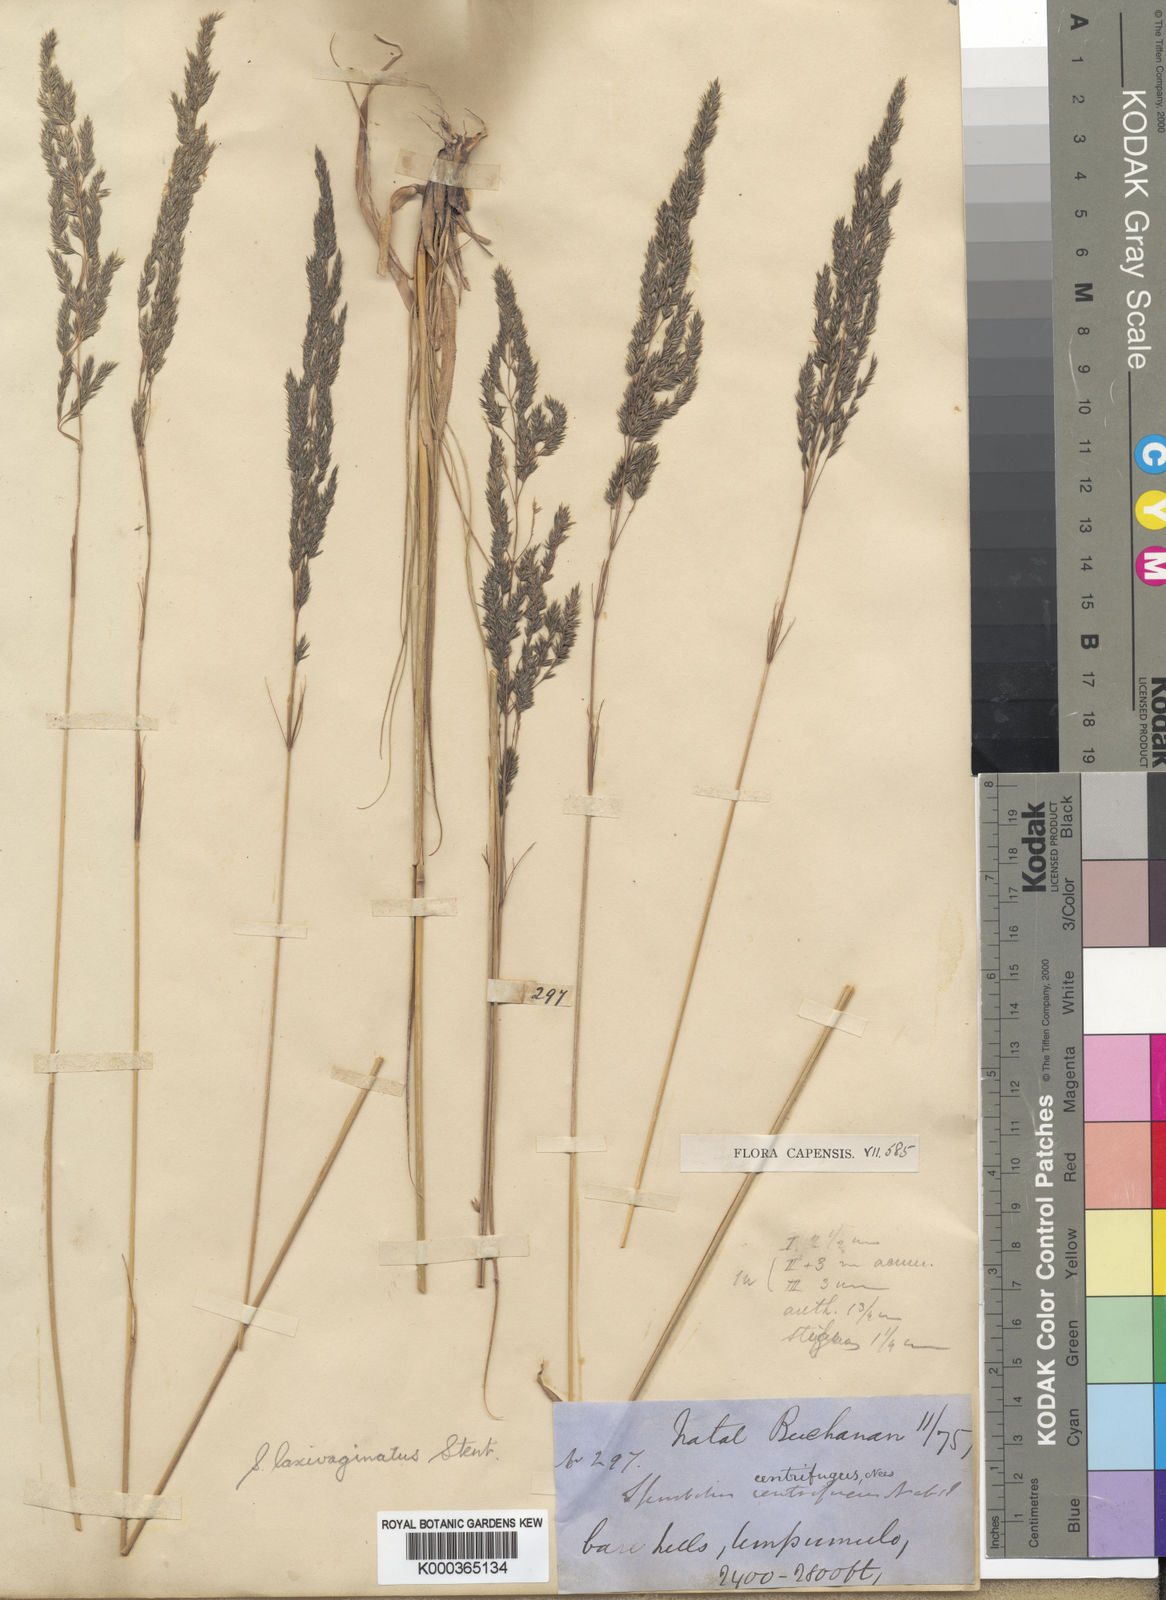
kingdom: Plantae
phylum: Tracheophyta
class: Liliopsida
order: Poales
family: Poaceae
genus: Sporobolus
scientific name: Sporobolus centrifugus
